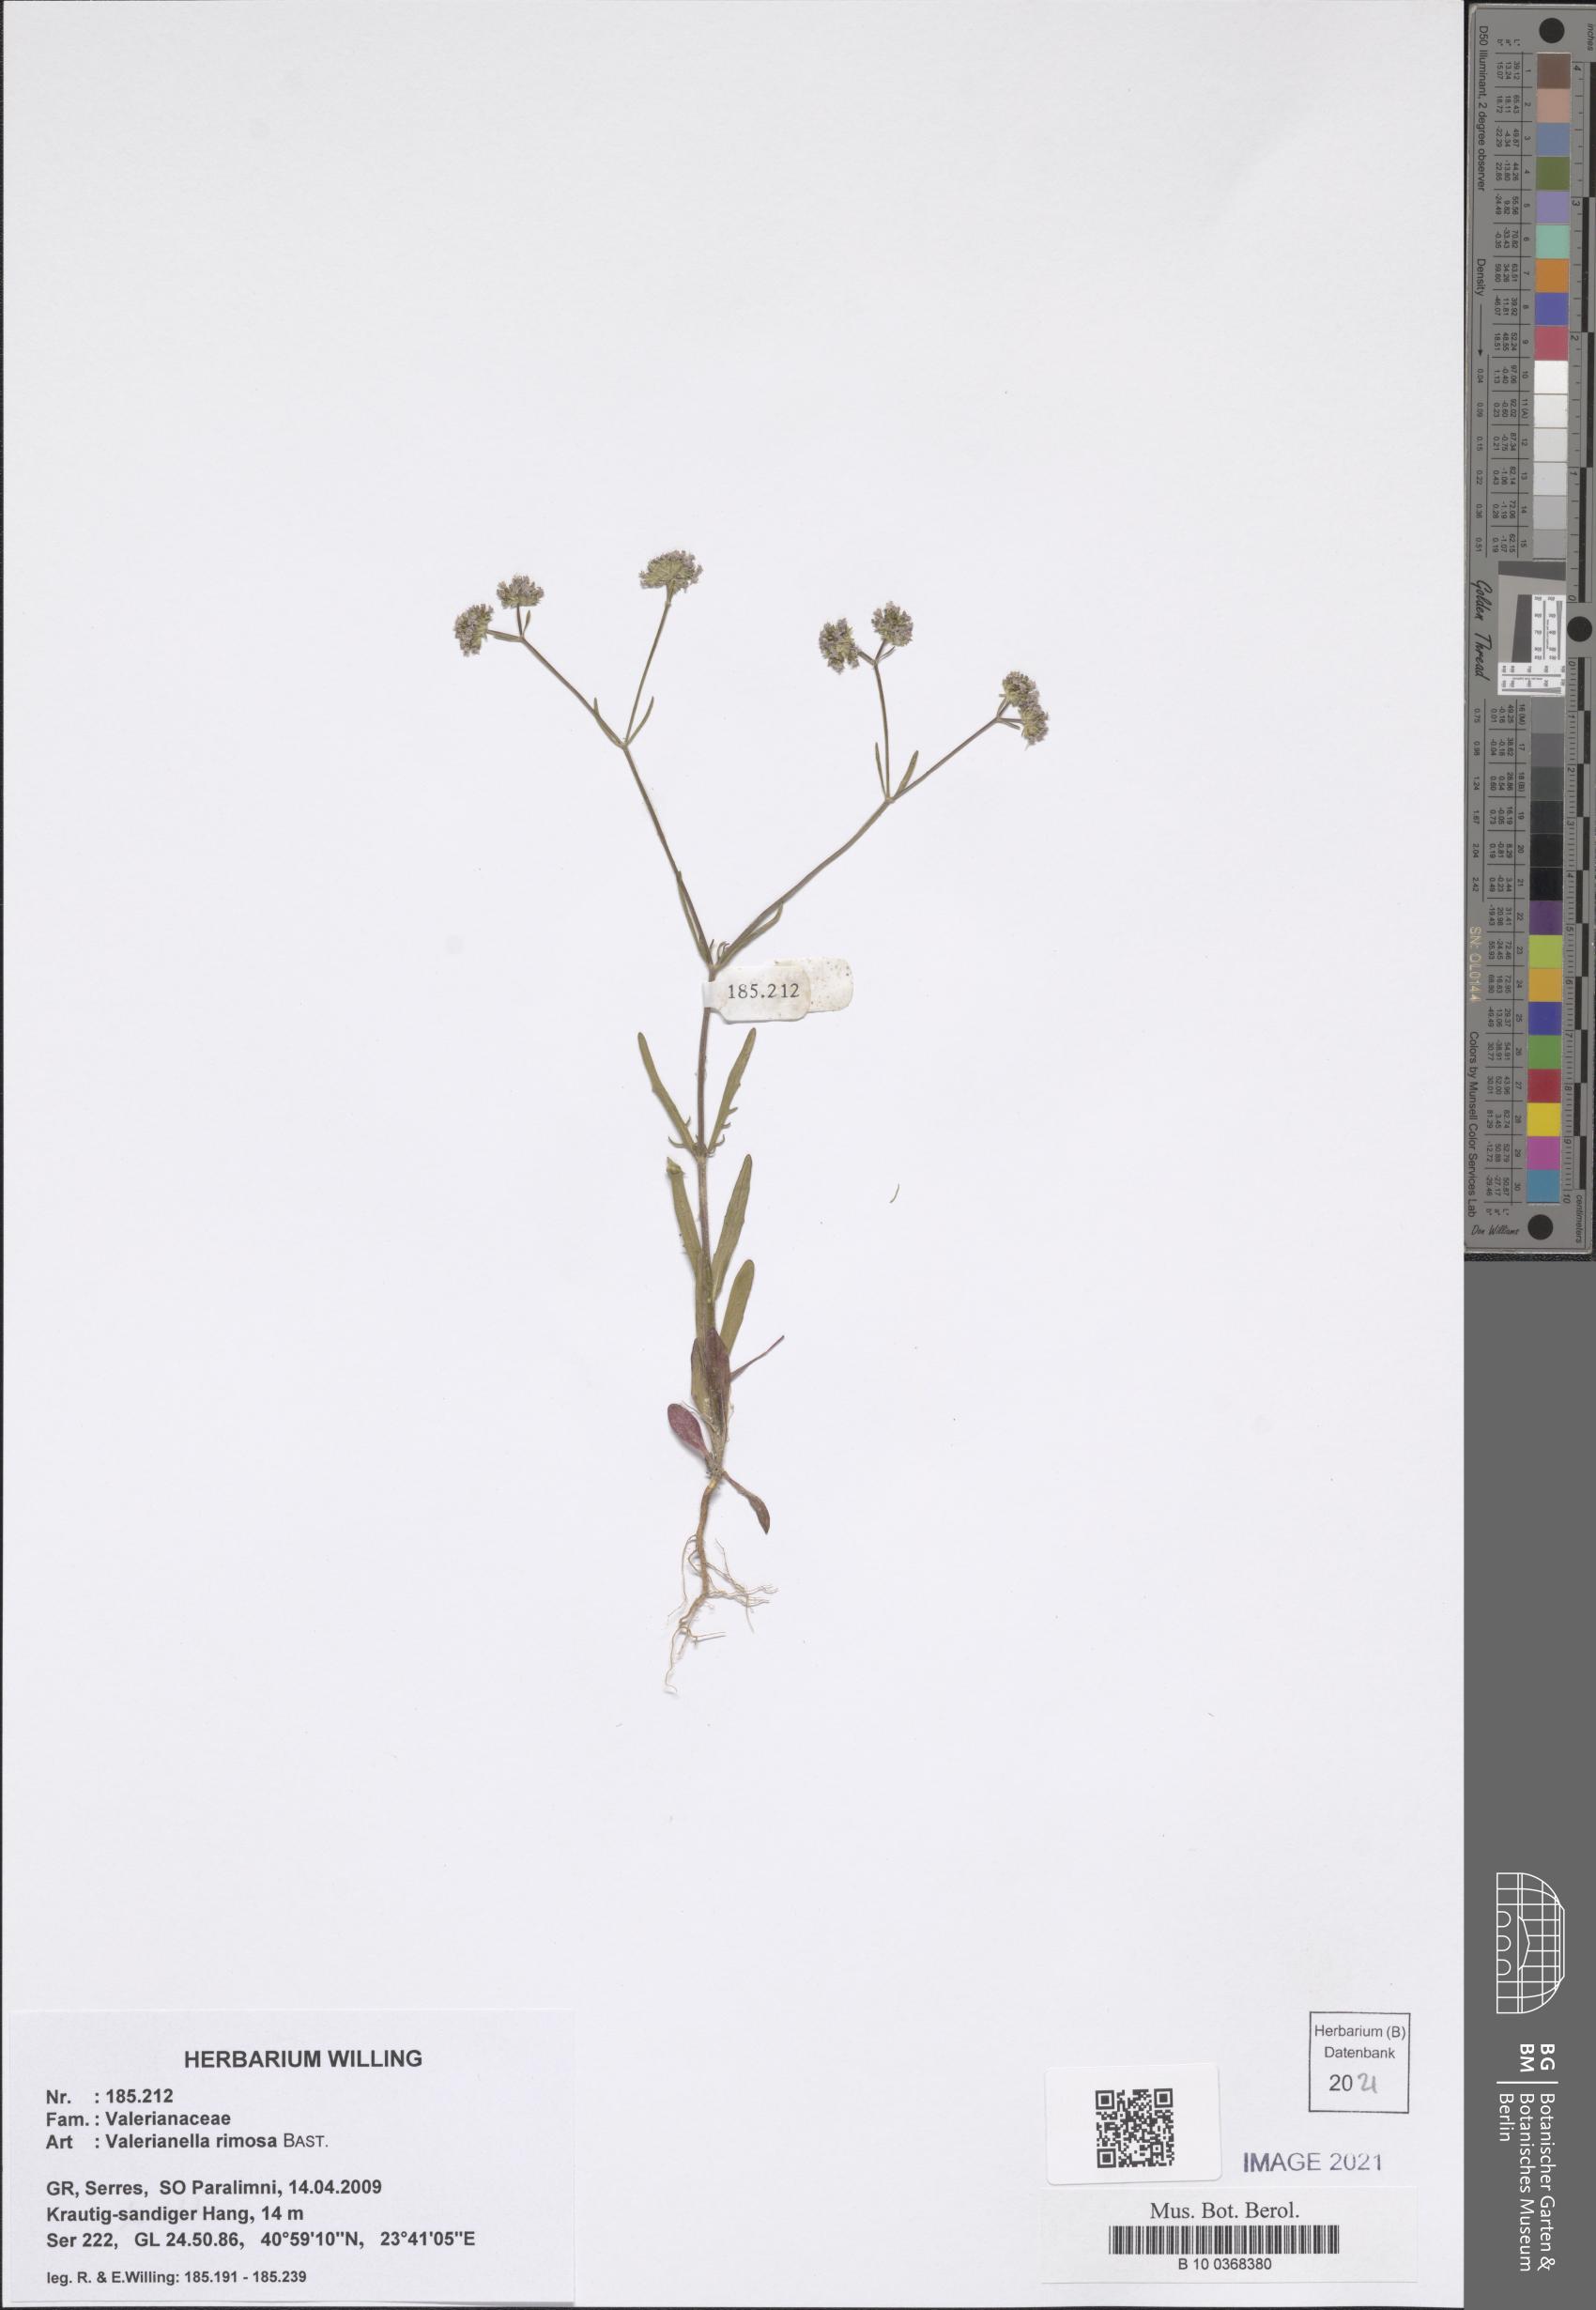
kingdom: Plantae
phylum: Tracheophyta
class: Magnoliopsida
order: Dipsacales
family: Caprifoliaceae
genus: Valerianella
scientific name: Valerianella rimosa
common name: Broad-fruited cornsalad
